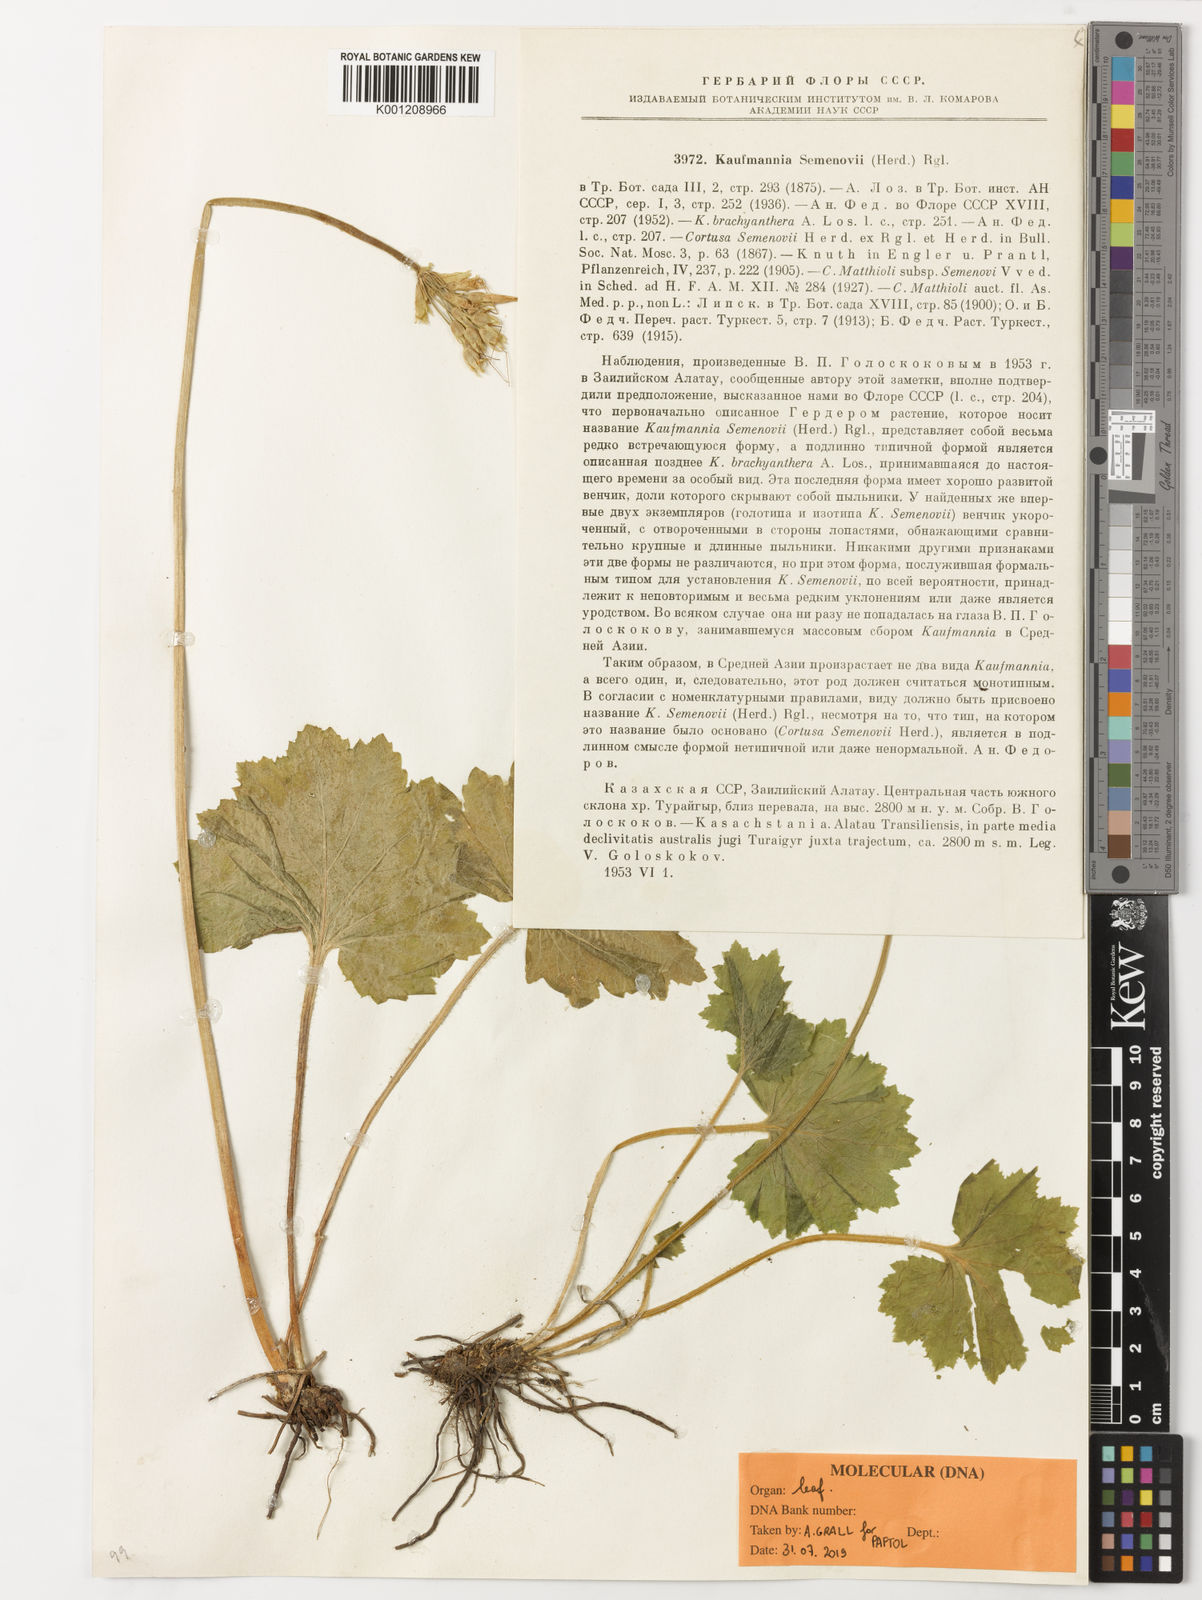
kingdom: Plantae
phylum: Tracheophyta
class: Magnoliopsida
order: Ericales
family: Primulaceae
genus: Kaufmannia
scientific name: Kaufmannia semenovii
